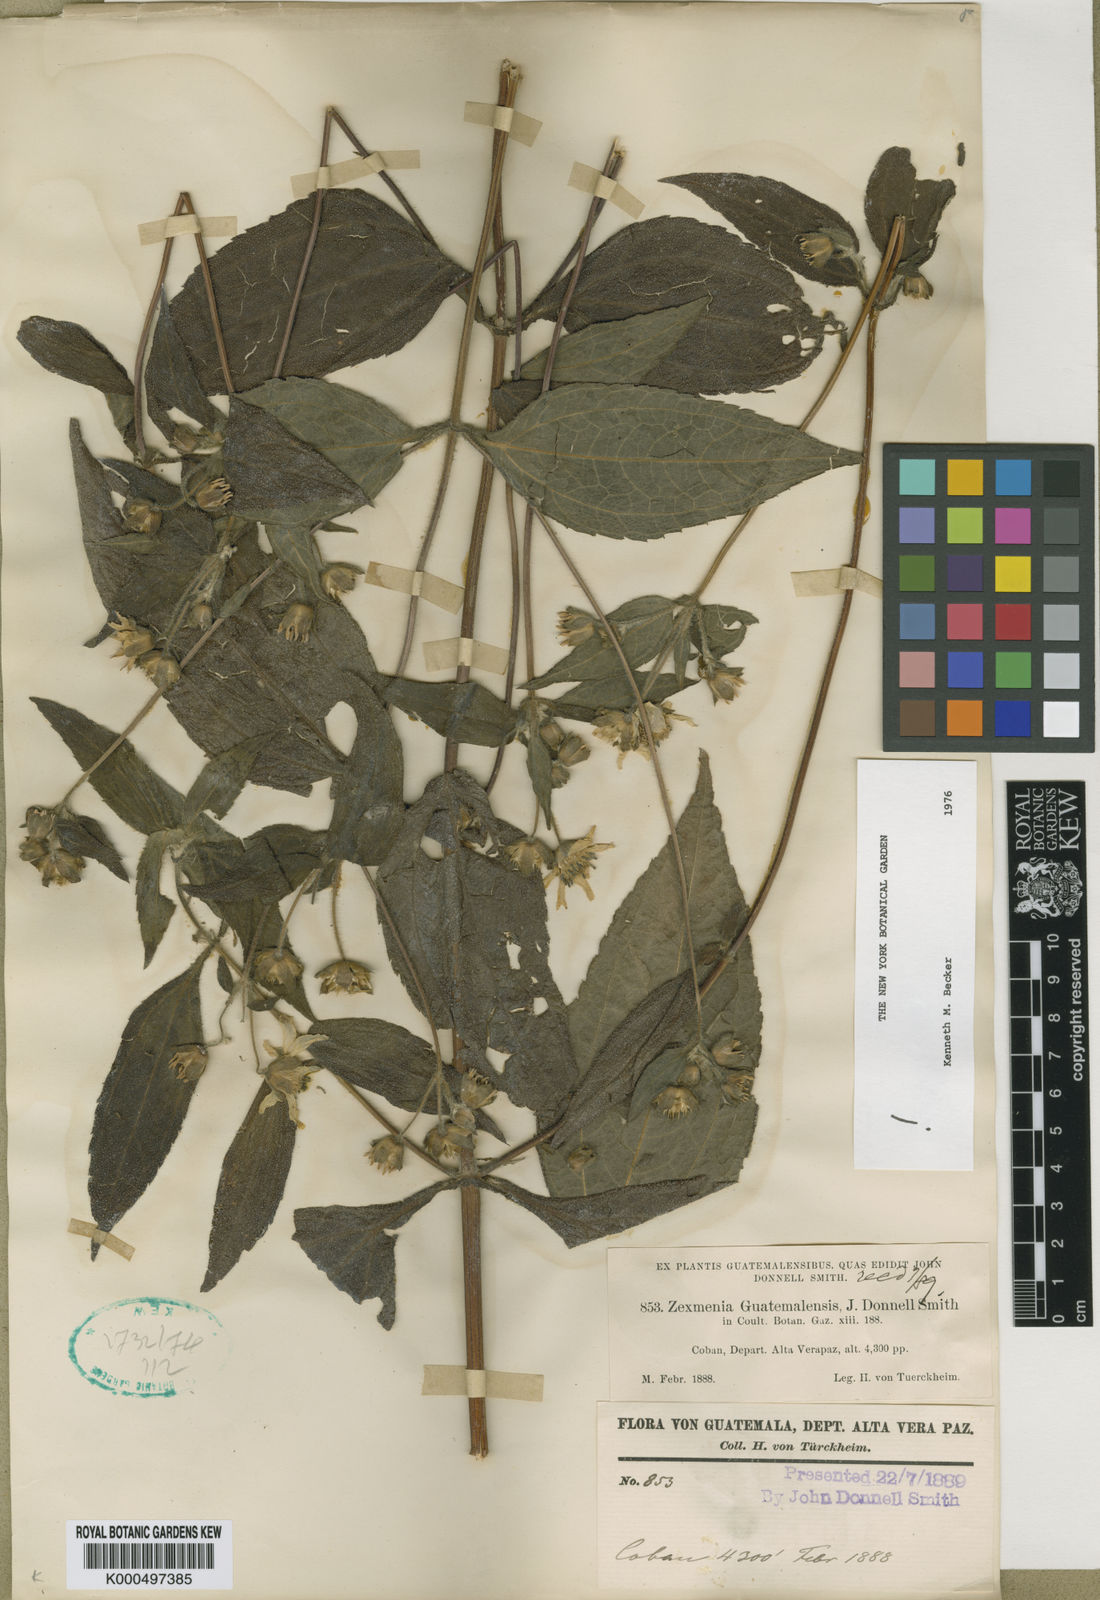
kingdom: Plantae
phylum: Tracheophyta
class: Magnoliopsida
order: Asterales
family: Asteraceae
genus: Lundellianthus
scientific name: Lundellianthus guatemalensis
